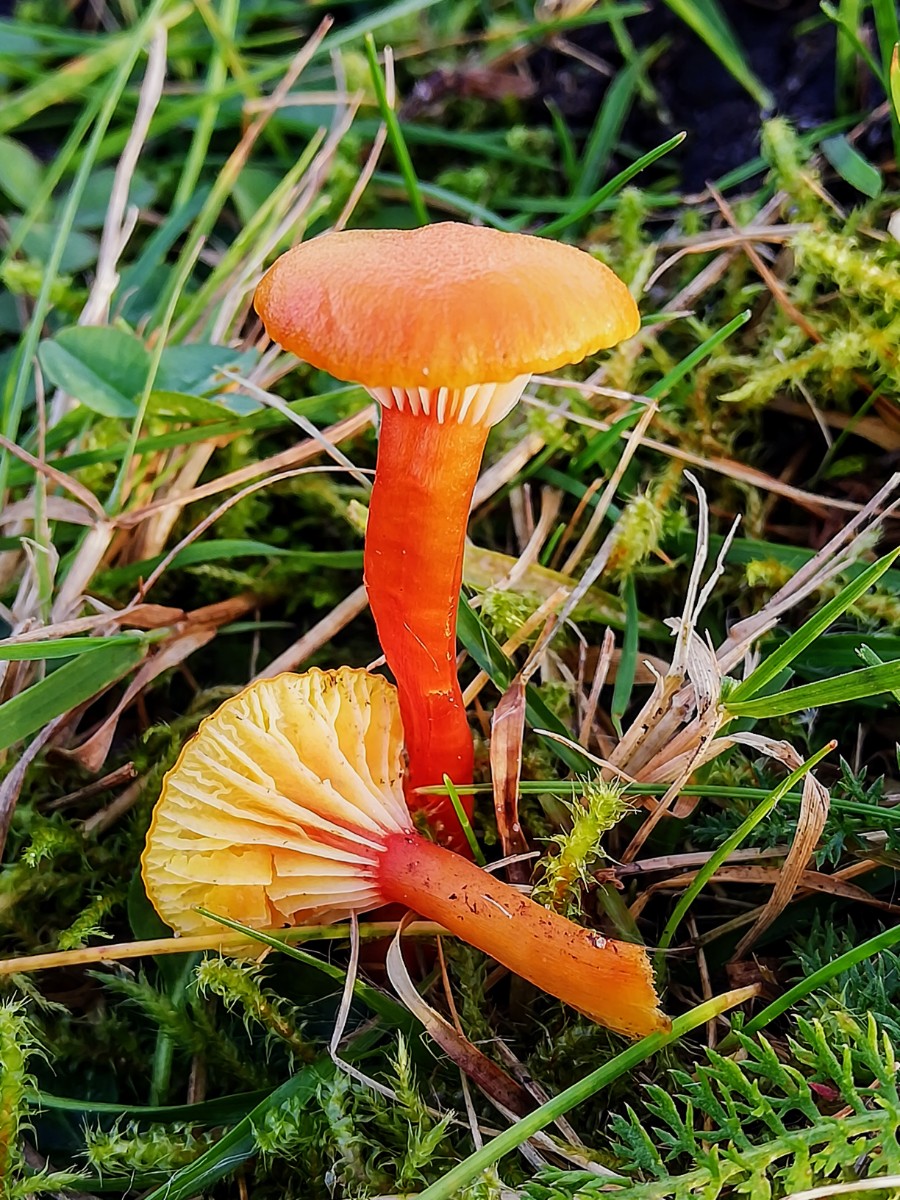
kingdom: Fungi
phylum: Basidiomycota
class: Agaricomycetes
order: Agaricales
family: Hygrophoraceae
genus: Hygrocybe
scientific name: Hygrocybe insipida
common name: liden vokshat
